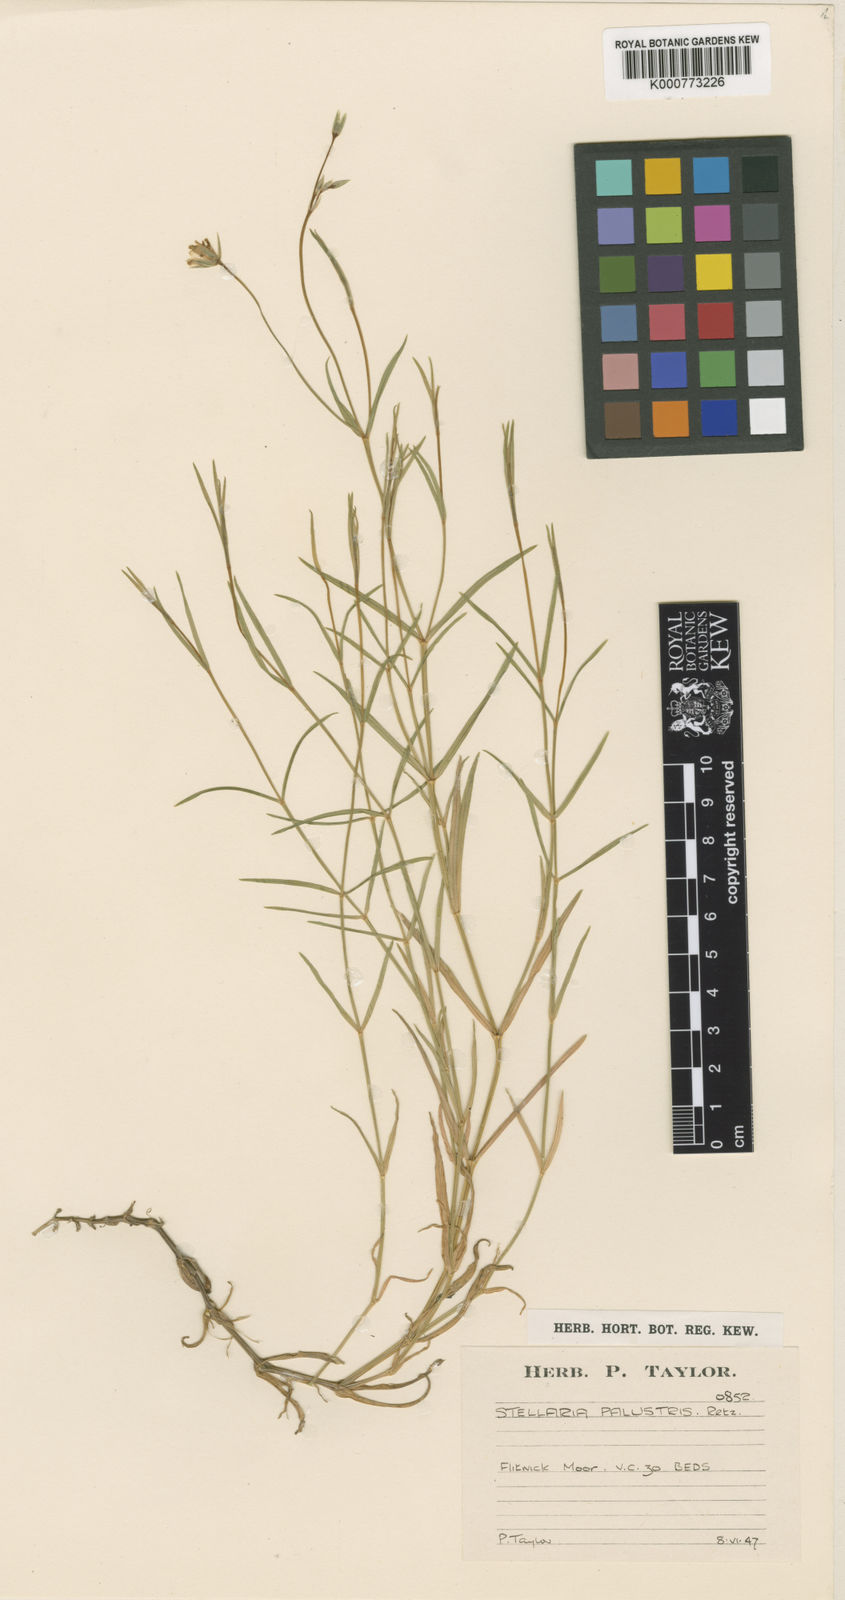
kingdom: Plantae
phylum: Tracheophyta
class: Magnoliopsida
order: Caryophyllales
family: Caryophyllaceae
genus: Stellaria
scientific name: Stellaria
